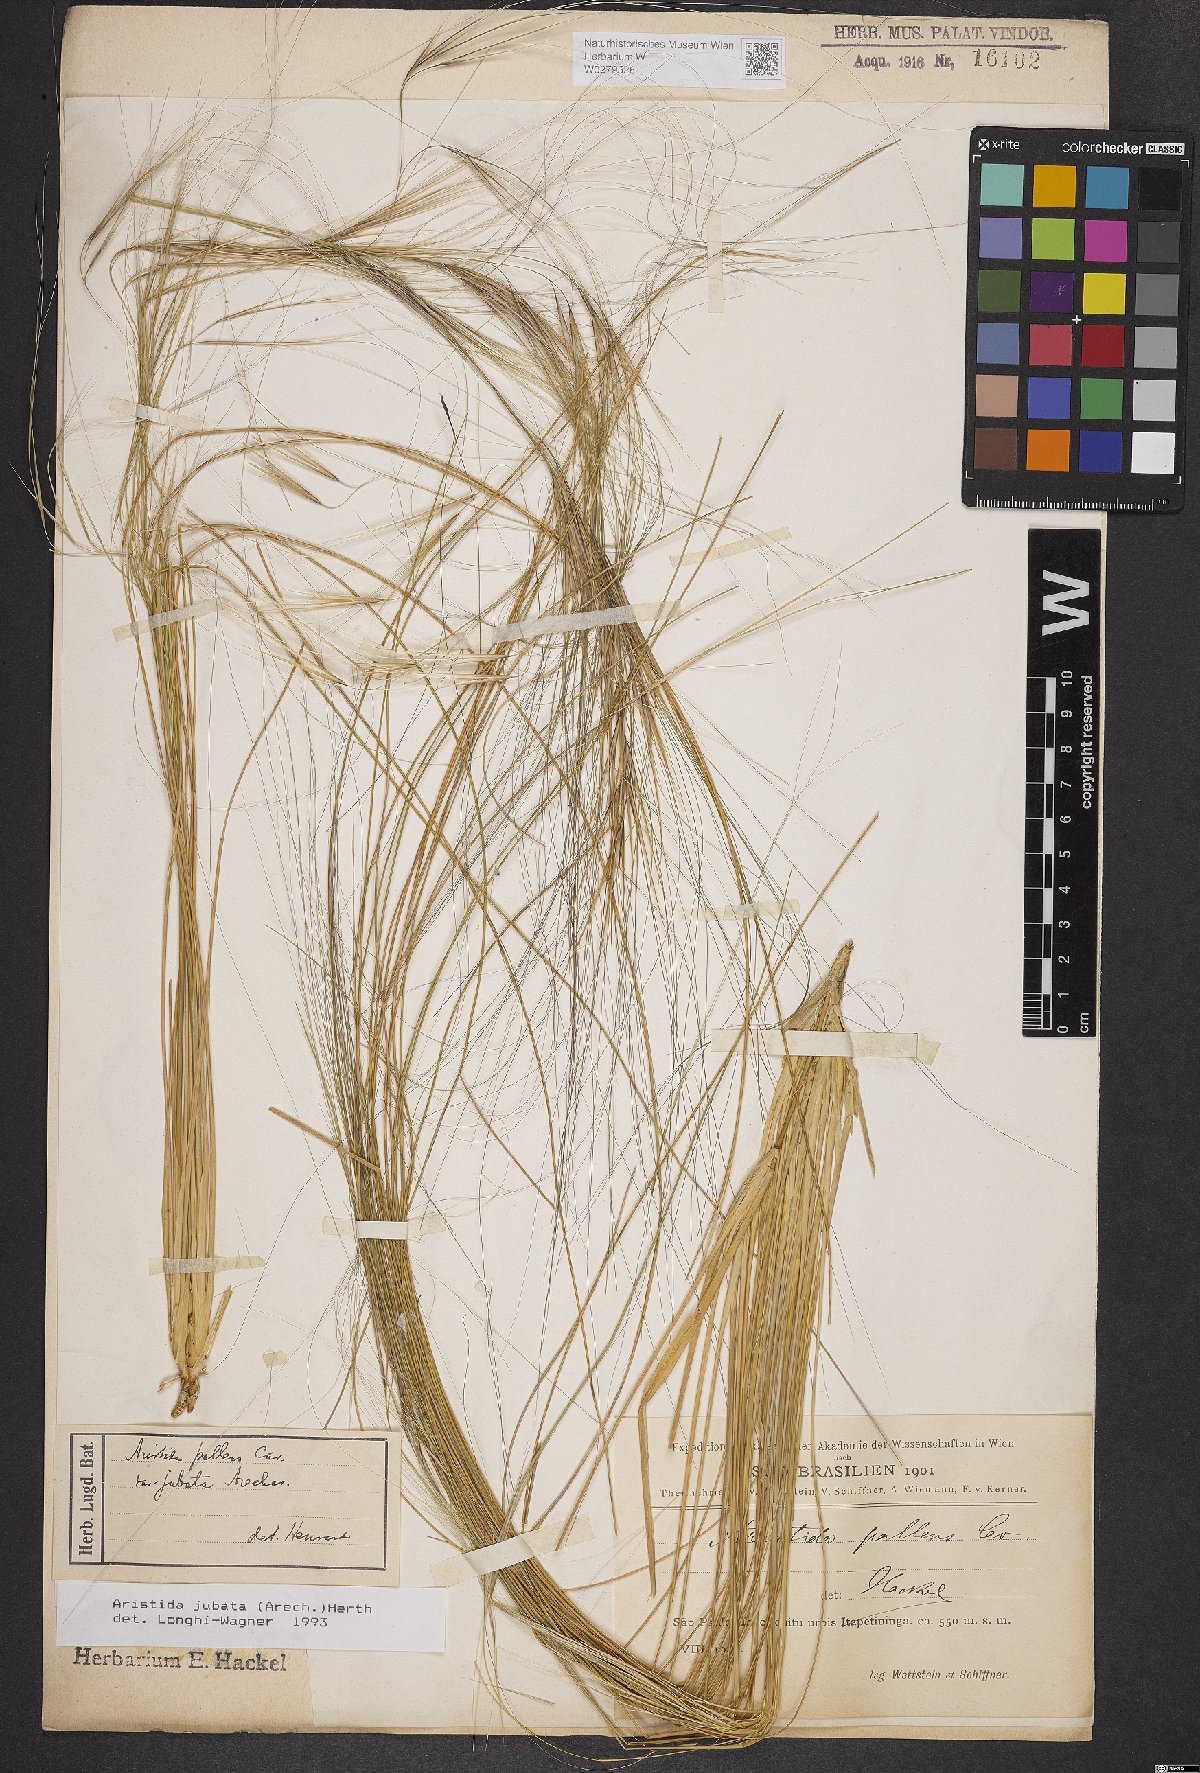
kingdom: Plantae
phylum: Tracheophyta
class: Liliopsida
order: Poales
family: Poaceae
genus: Aristida
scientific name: Aristida jubata
